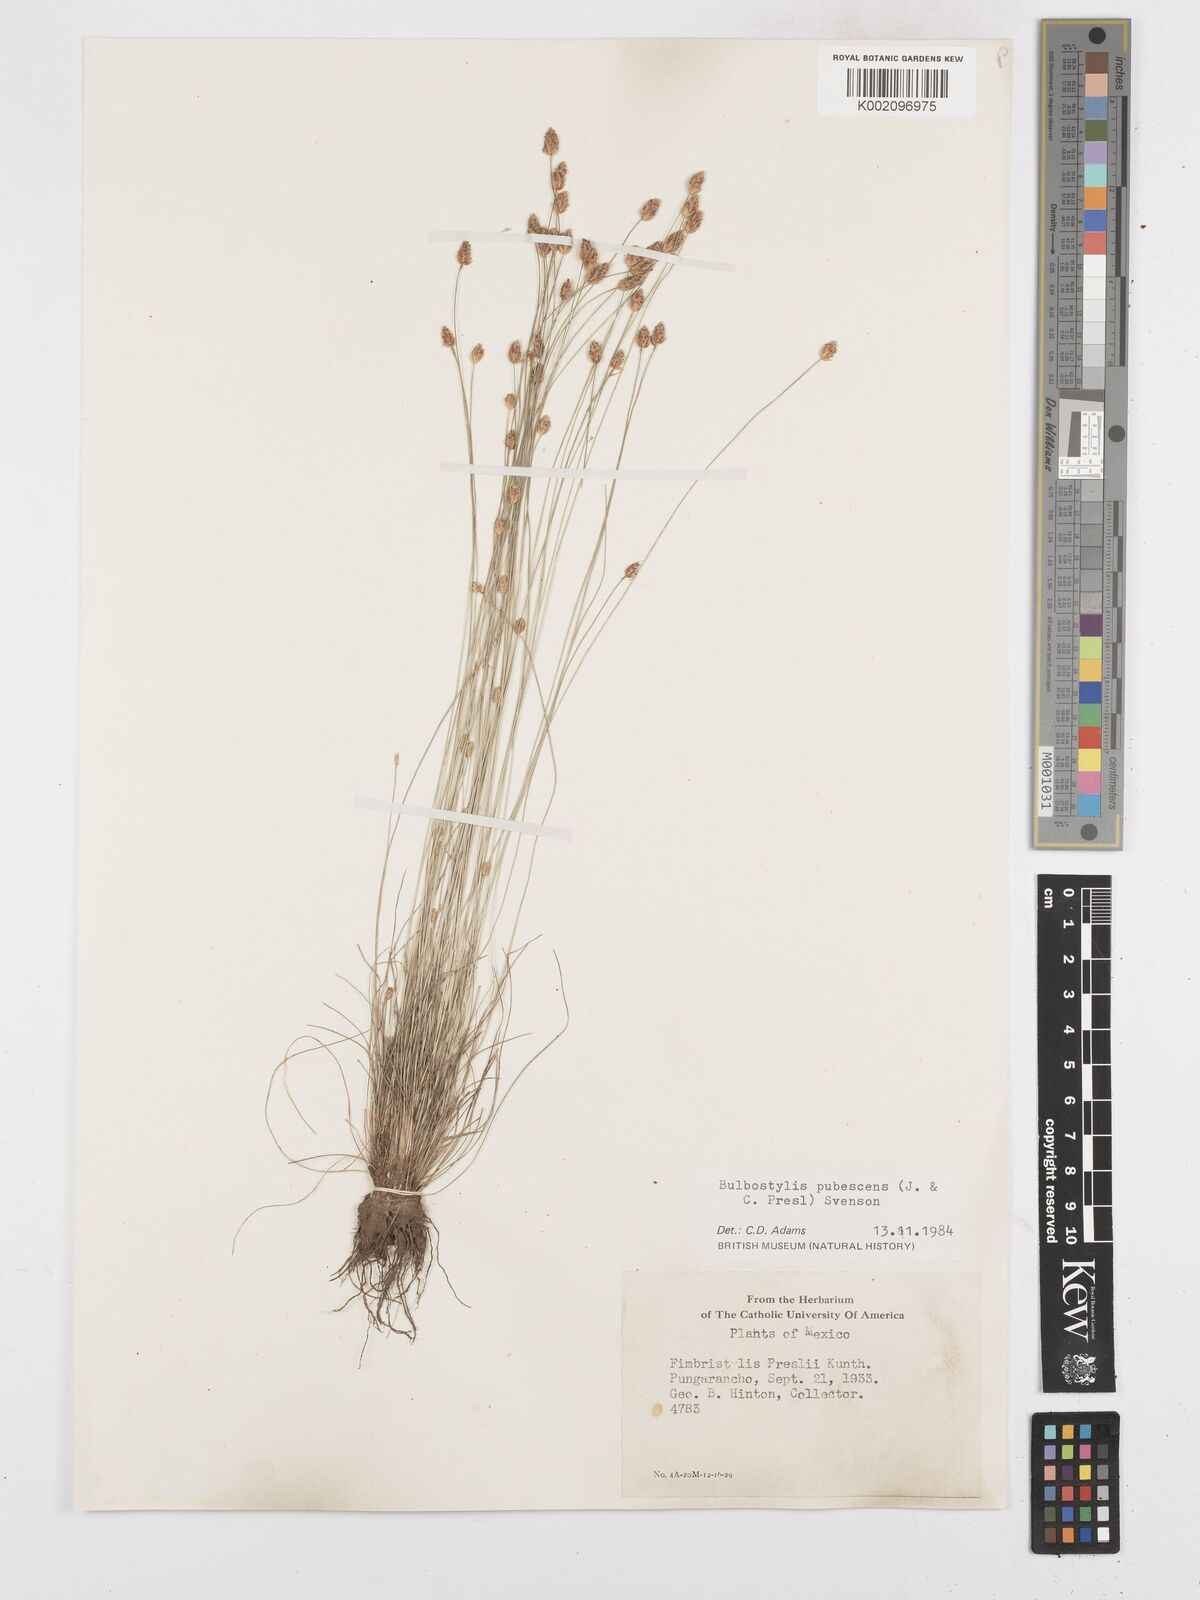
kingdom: Plantae
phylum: Tracheophyta
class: Liliopsida
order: Poales
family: Cyperaceae
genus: Bulbostylis
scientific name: Bulbostylis pubescens
